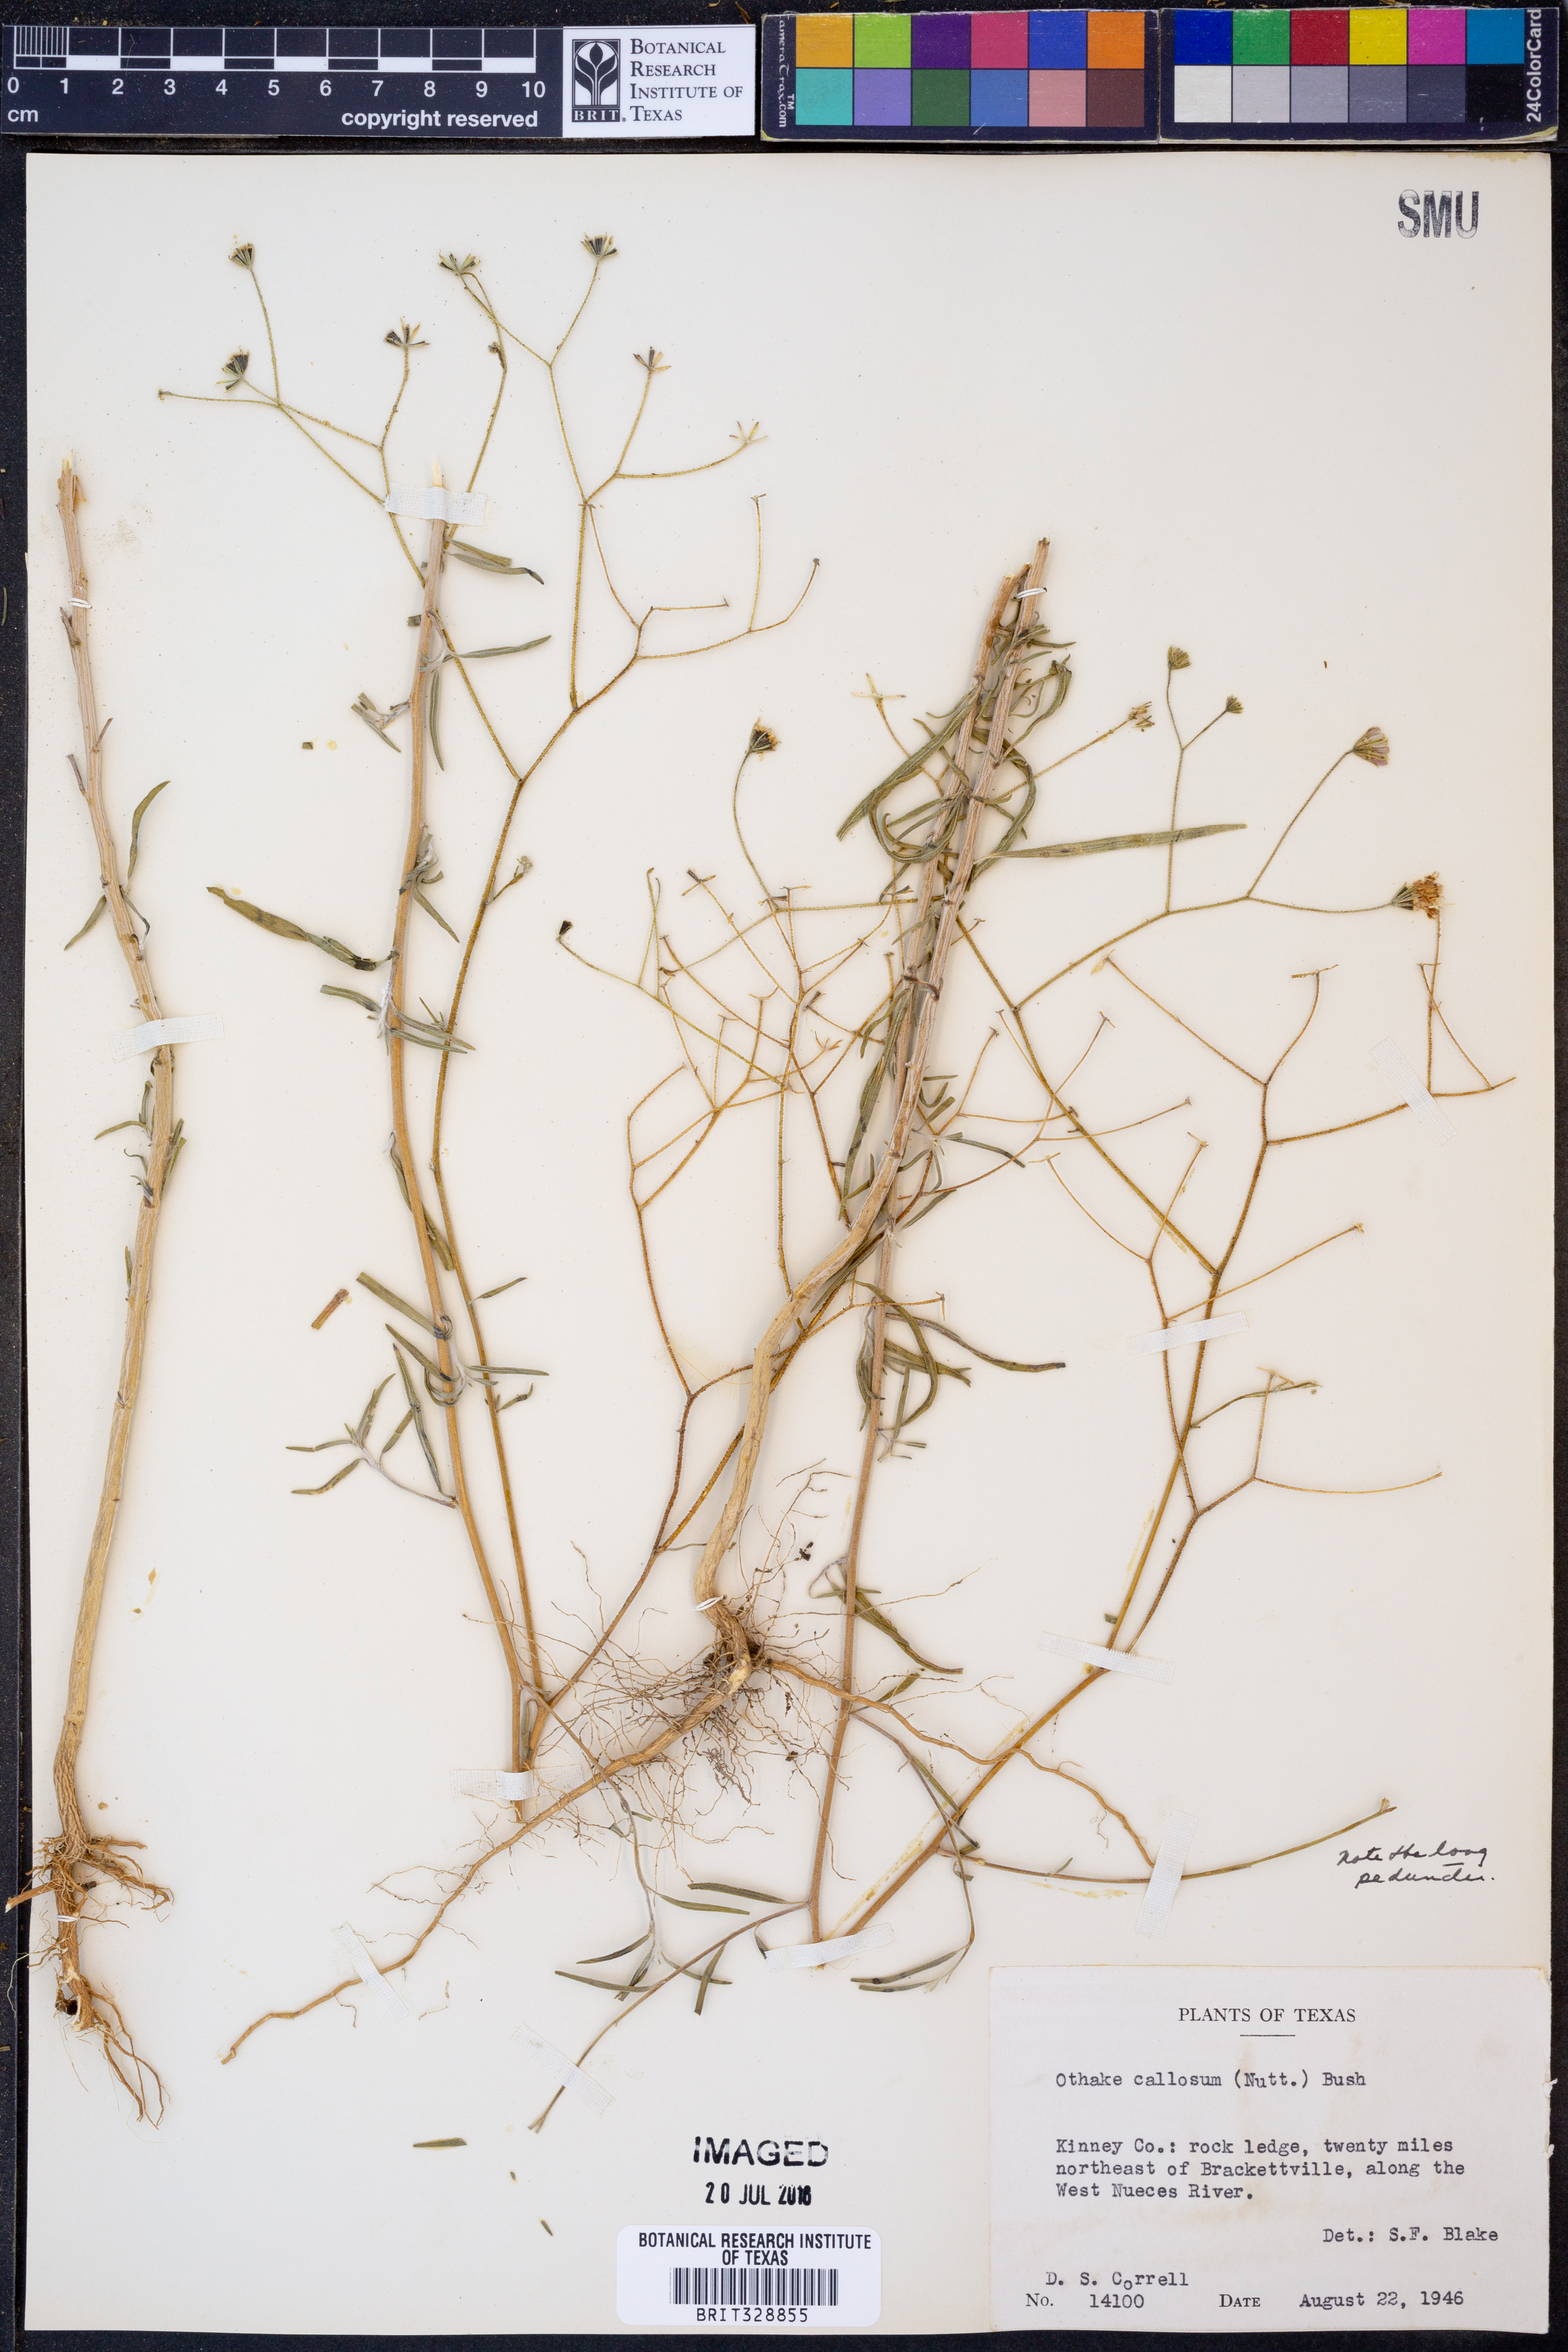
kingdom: Plantae
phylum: Tracheophyta
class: Magnoliopsida
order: Asterales
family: Asteraceae
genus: Palafoxia
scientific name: Palafoxia callosa
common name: Small palafox
